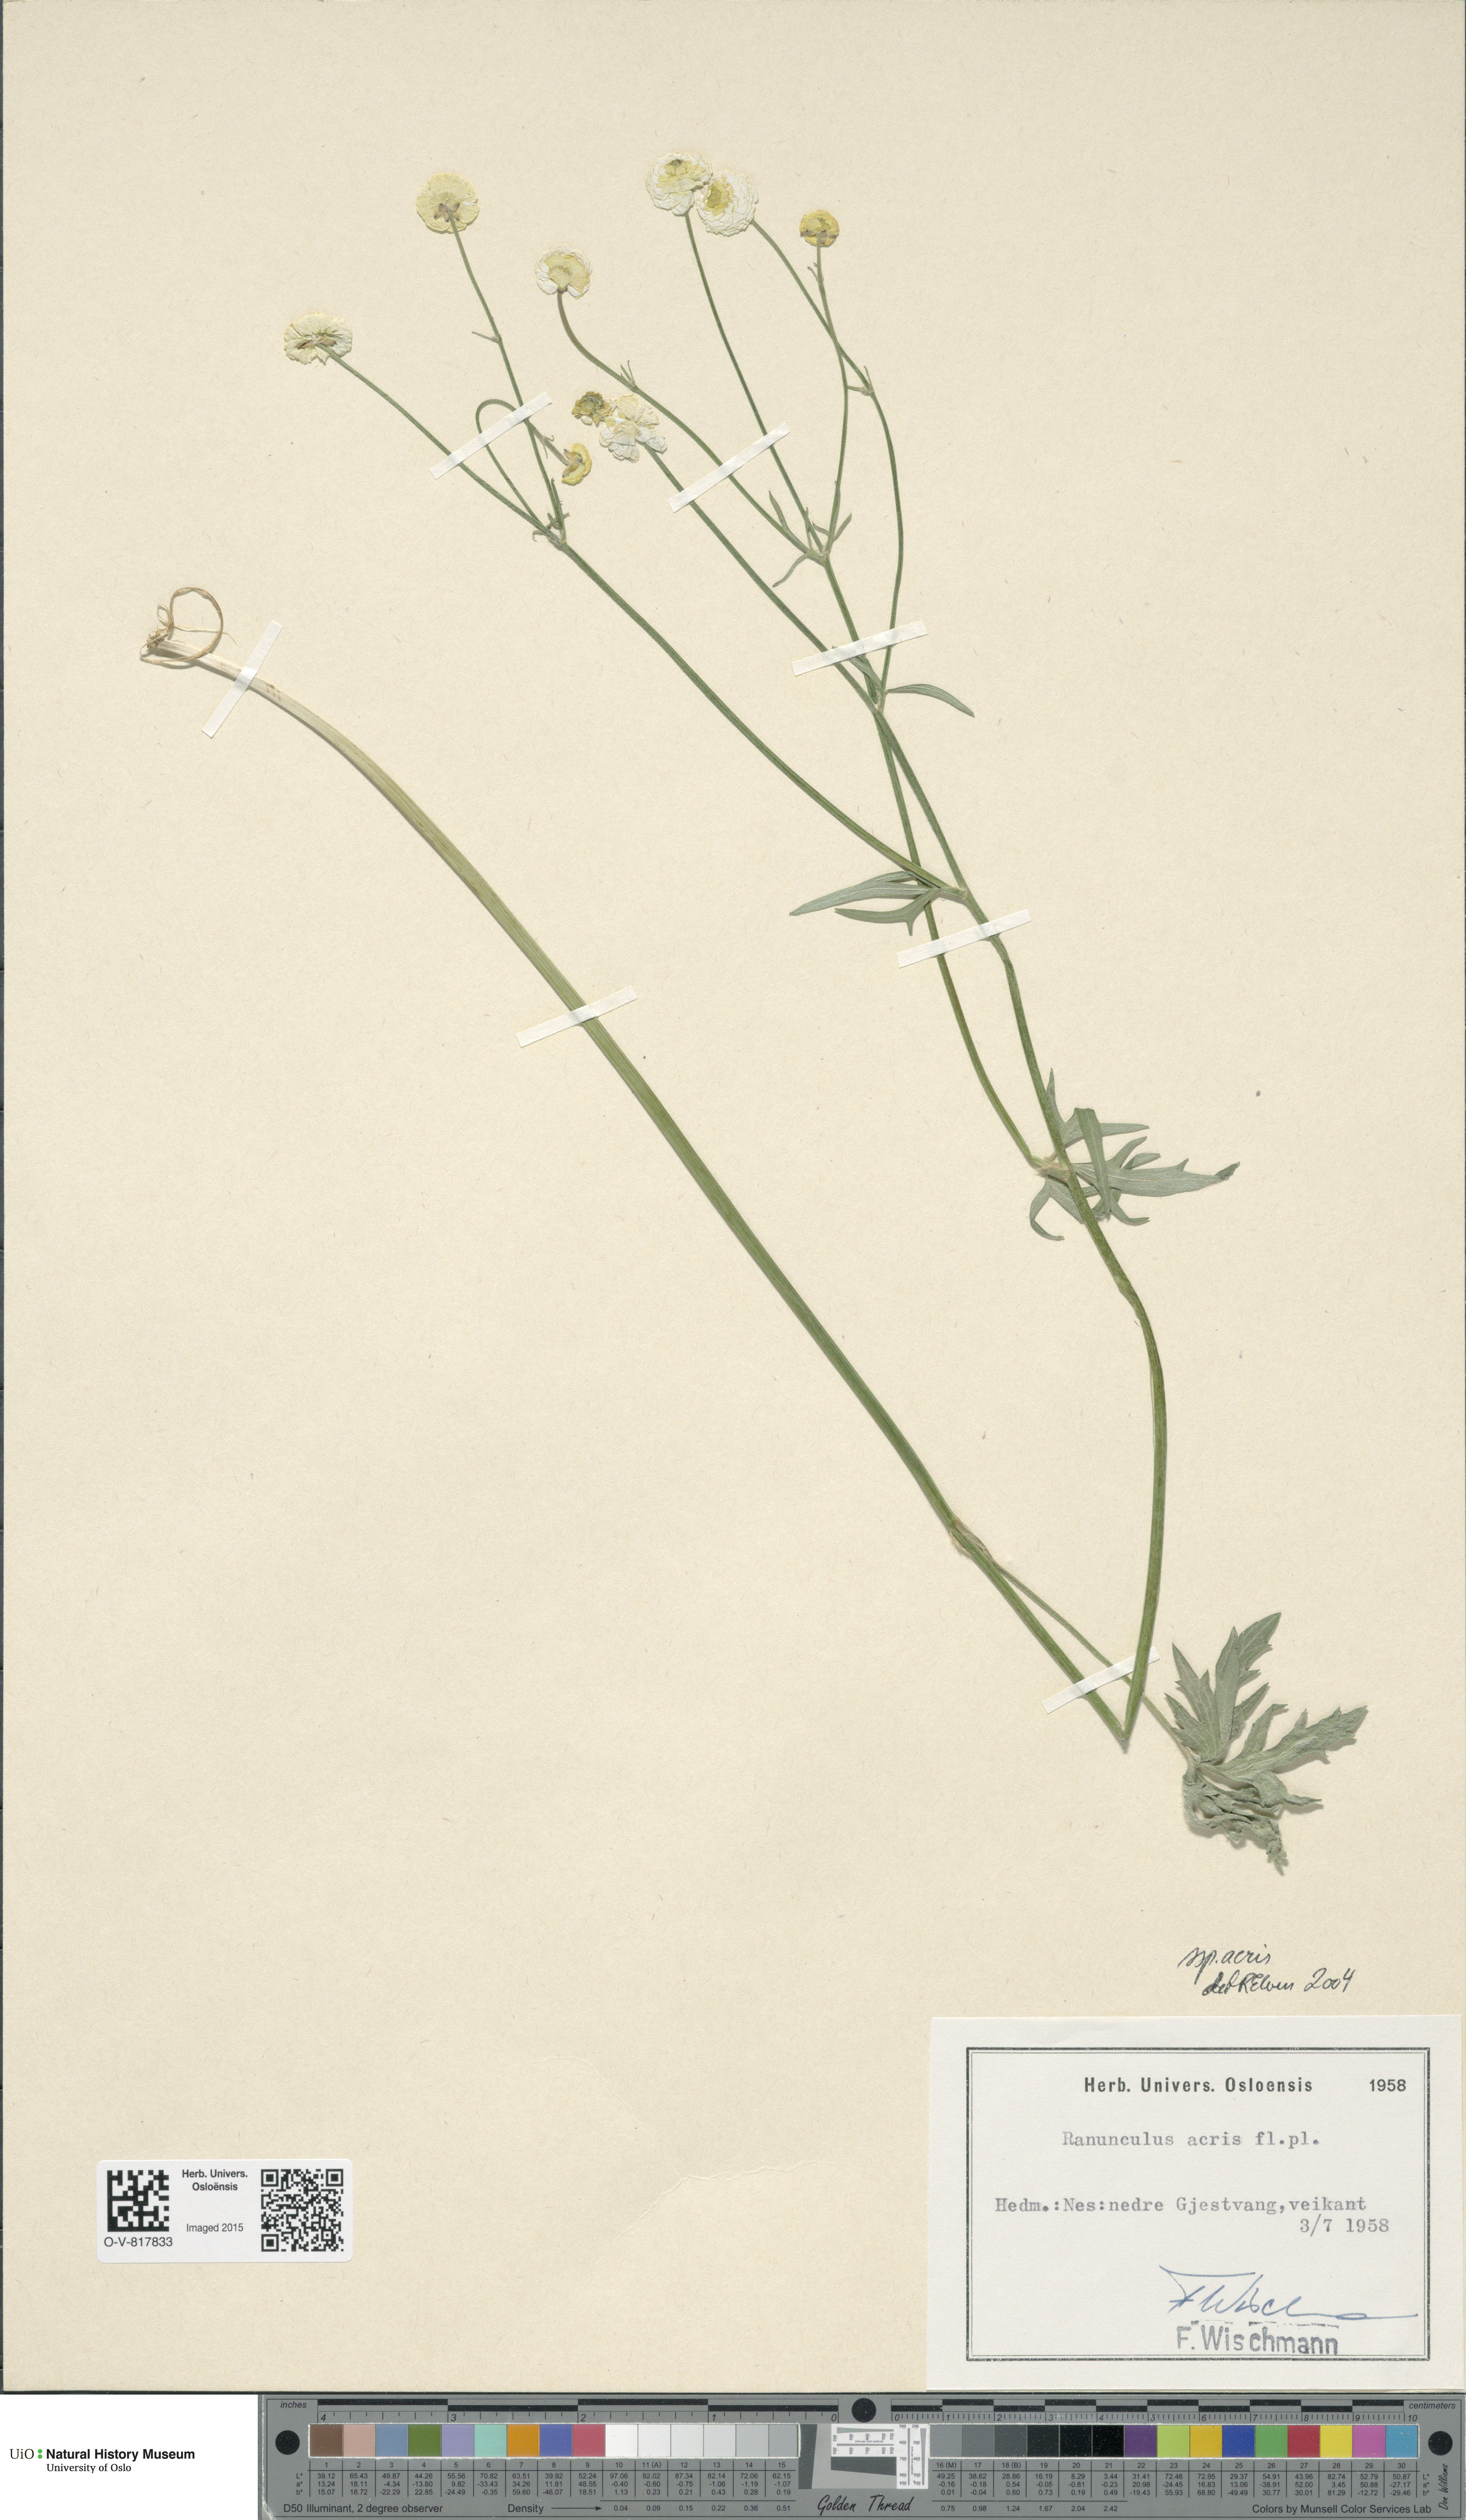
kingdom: Plantae
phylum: Tracheophyta
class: Magnoliopsida
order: Ranunculales
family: Ranunculaceae
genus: Ranunculus
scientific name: Ranunculus acris
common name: Meadow buttercup
